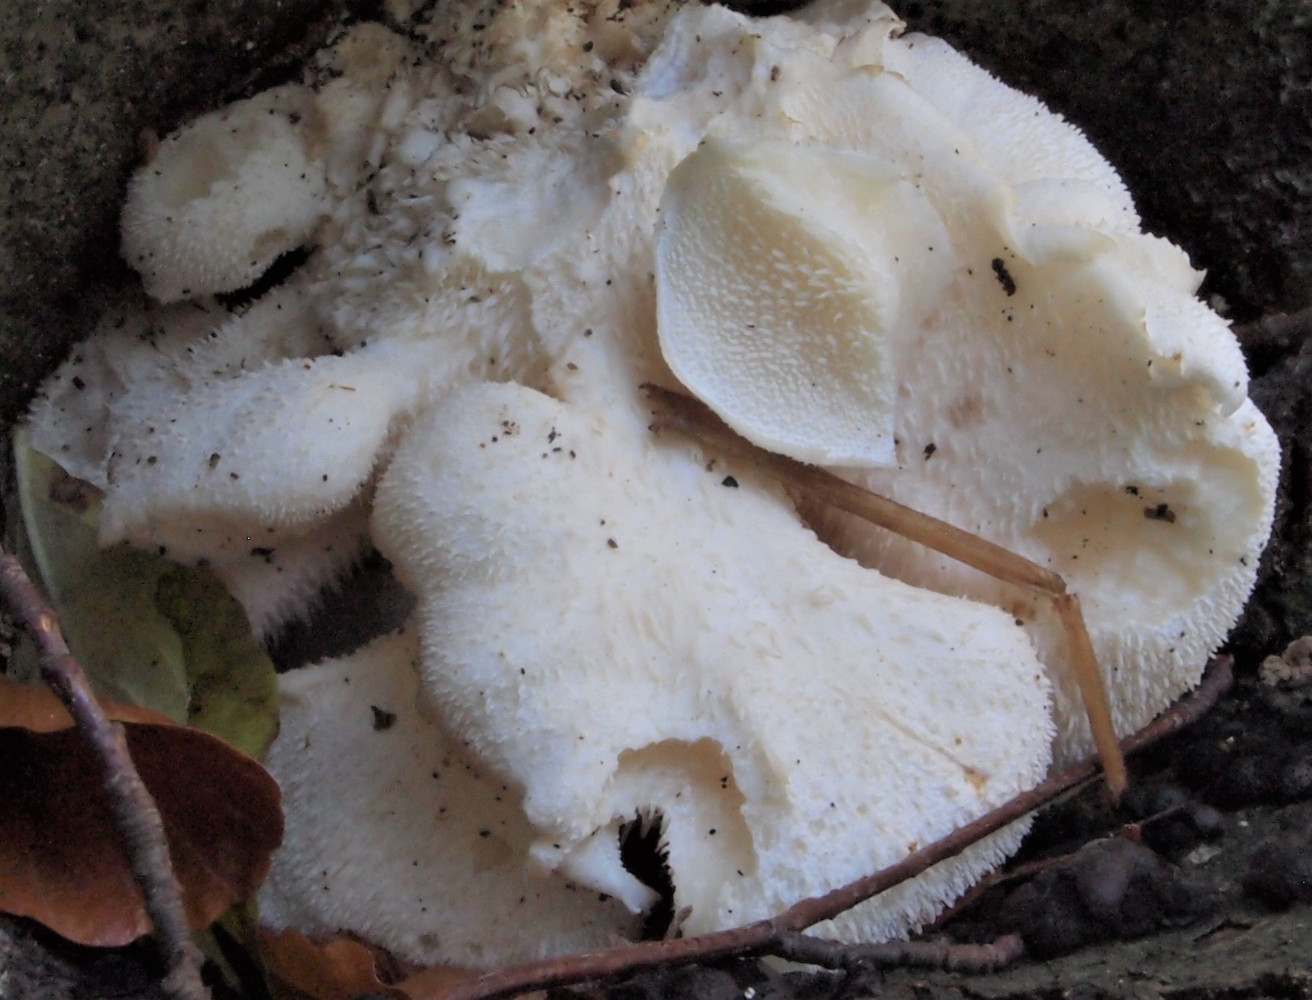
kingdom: Fungi
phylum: Basidiomycota
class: Agaricomycetes
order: Russulales
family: Hericiaceae
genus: Hericium
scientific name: Hericium cirrhatum
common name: børstepigsvamp
